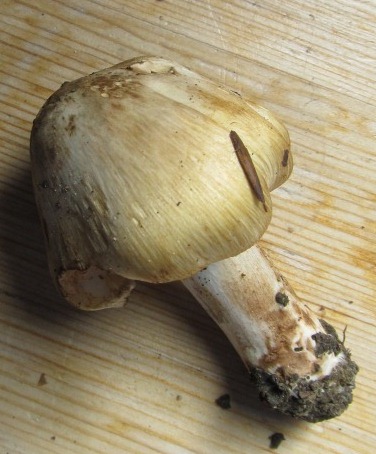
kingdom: Fungi
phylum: Basidiomycota
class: Agaricomycetes
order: Agaricales
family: Inocybaceae
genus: Inocybe
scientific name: Inocybe
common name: trævlhat
